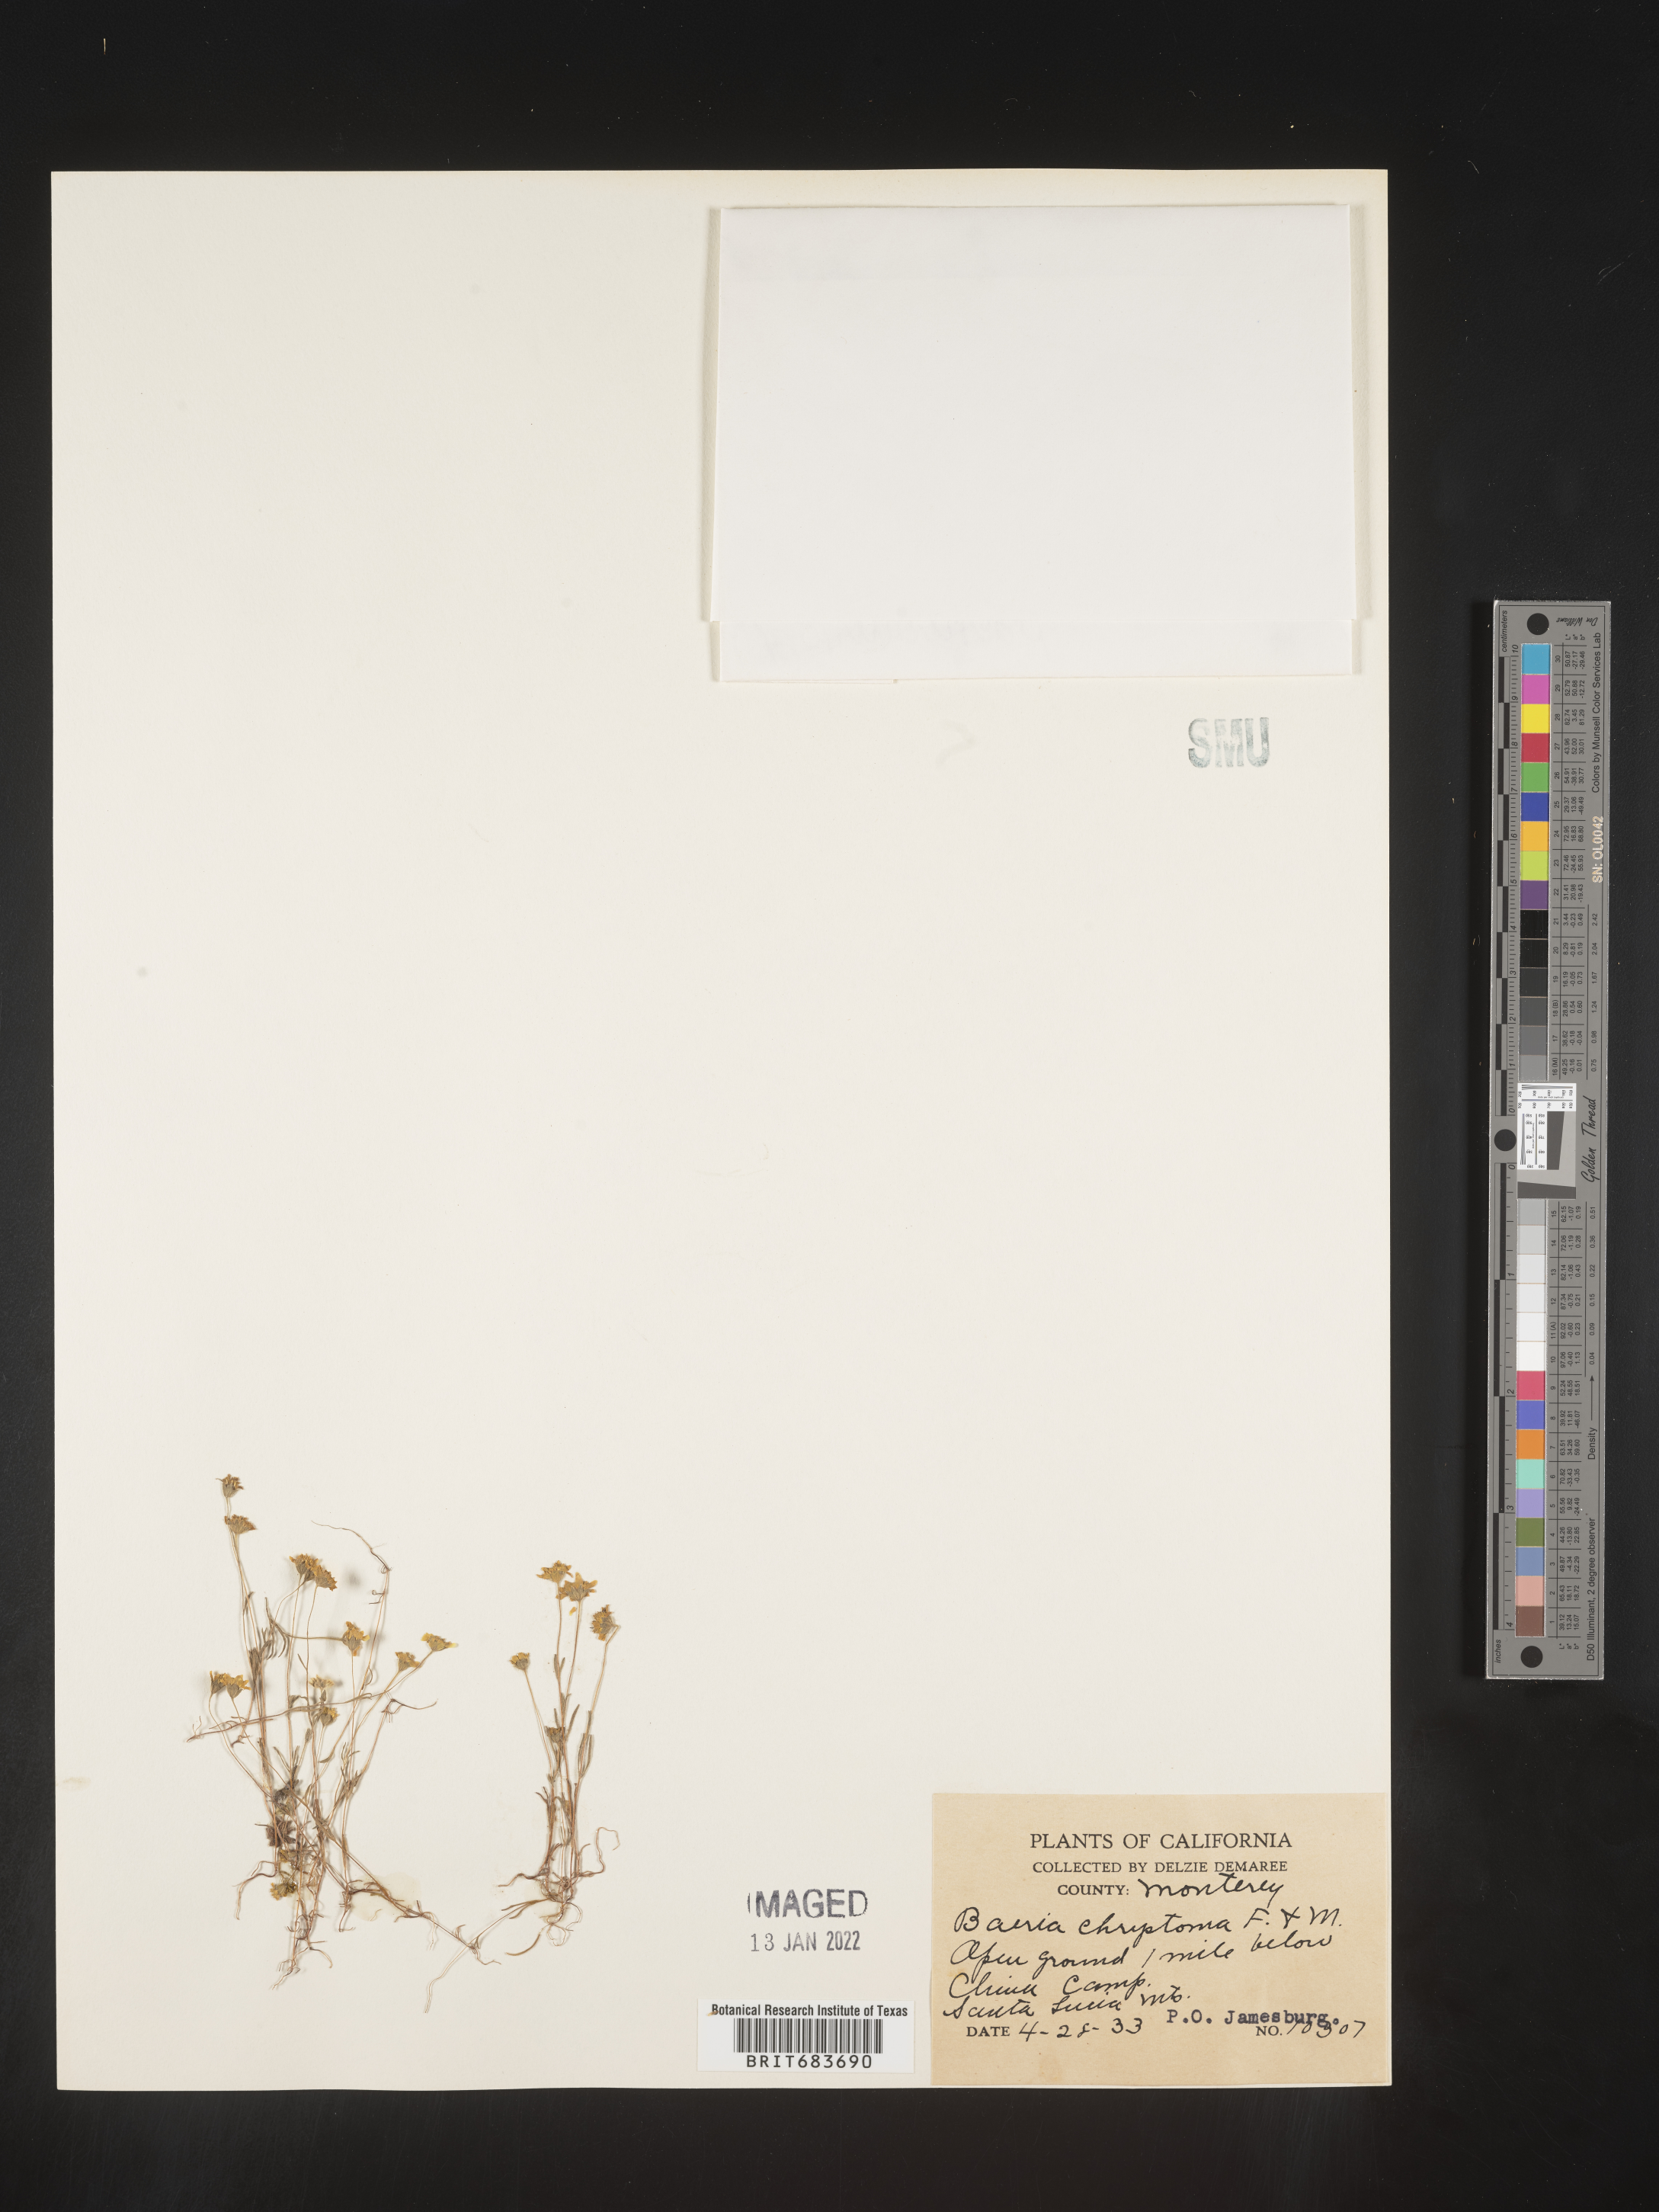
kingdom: Plantae
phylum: Tracheophyta
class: Magnoliopsida
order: Asterales
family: Asteraceae
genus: Lasthenia
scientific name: Lasthenia
